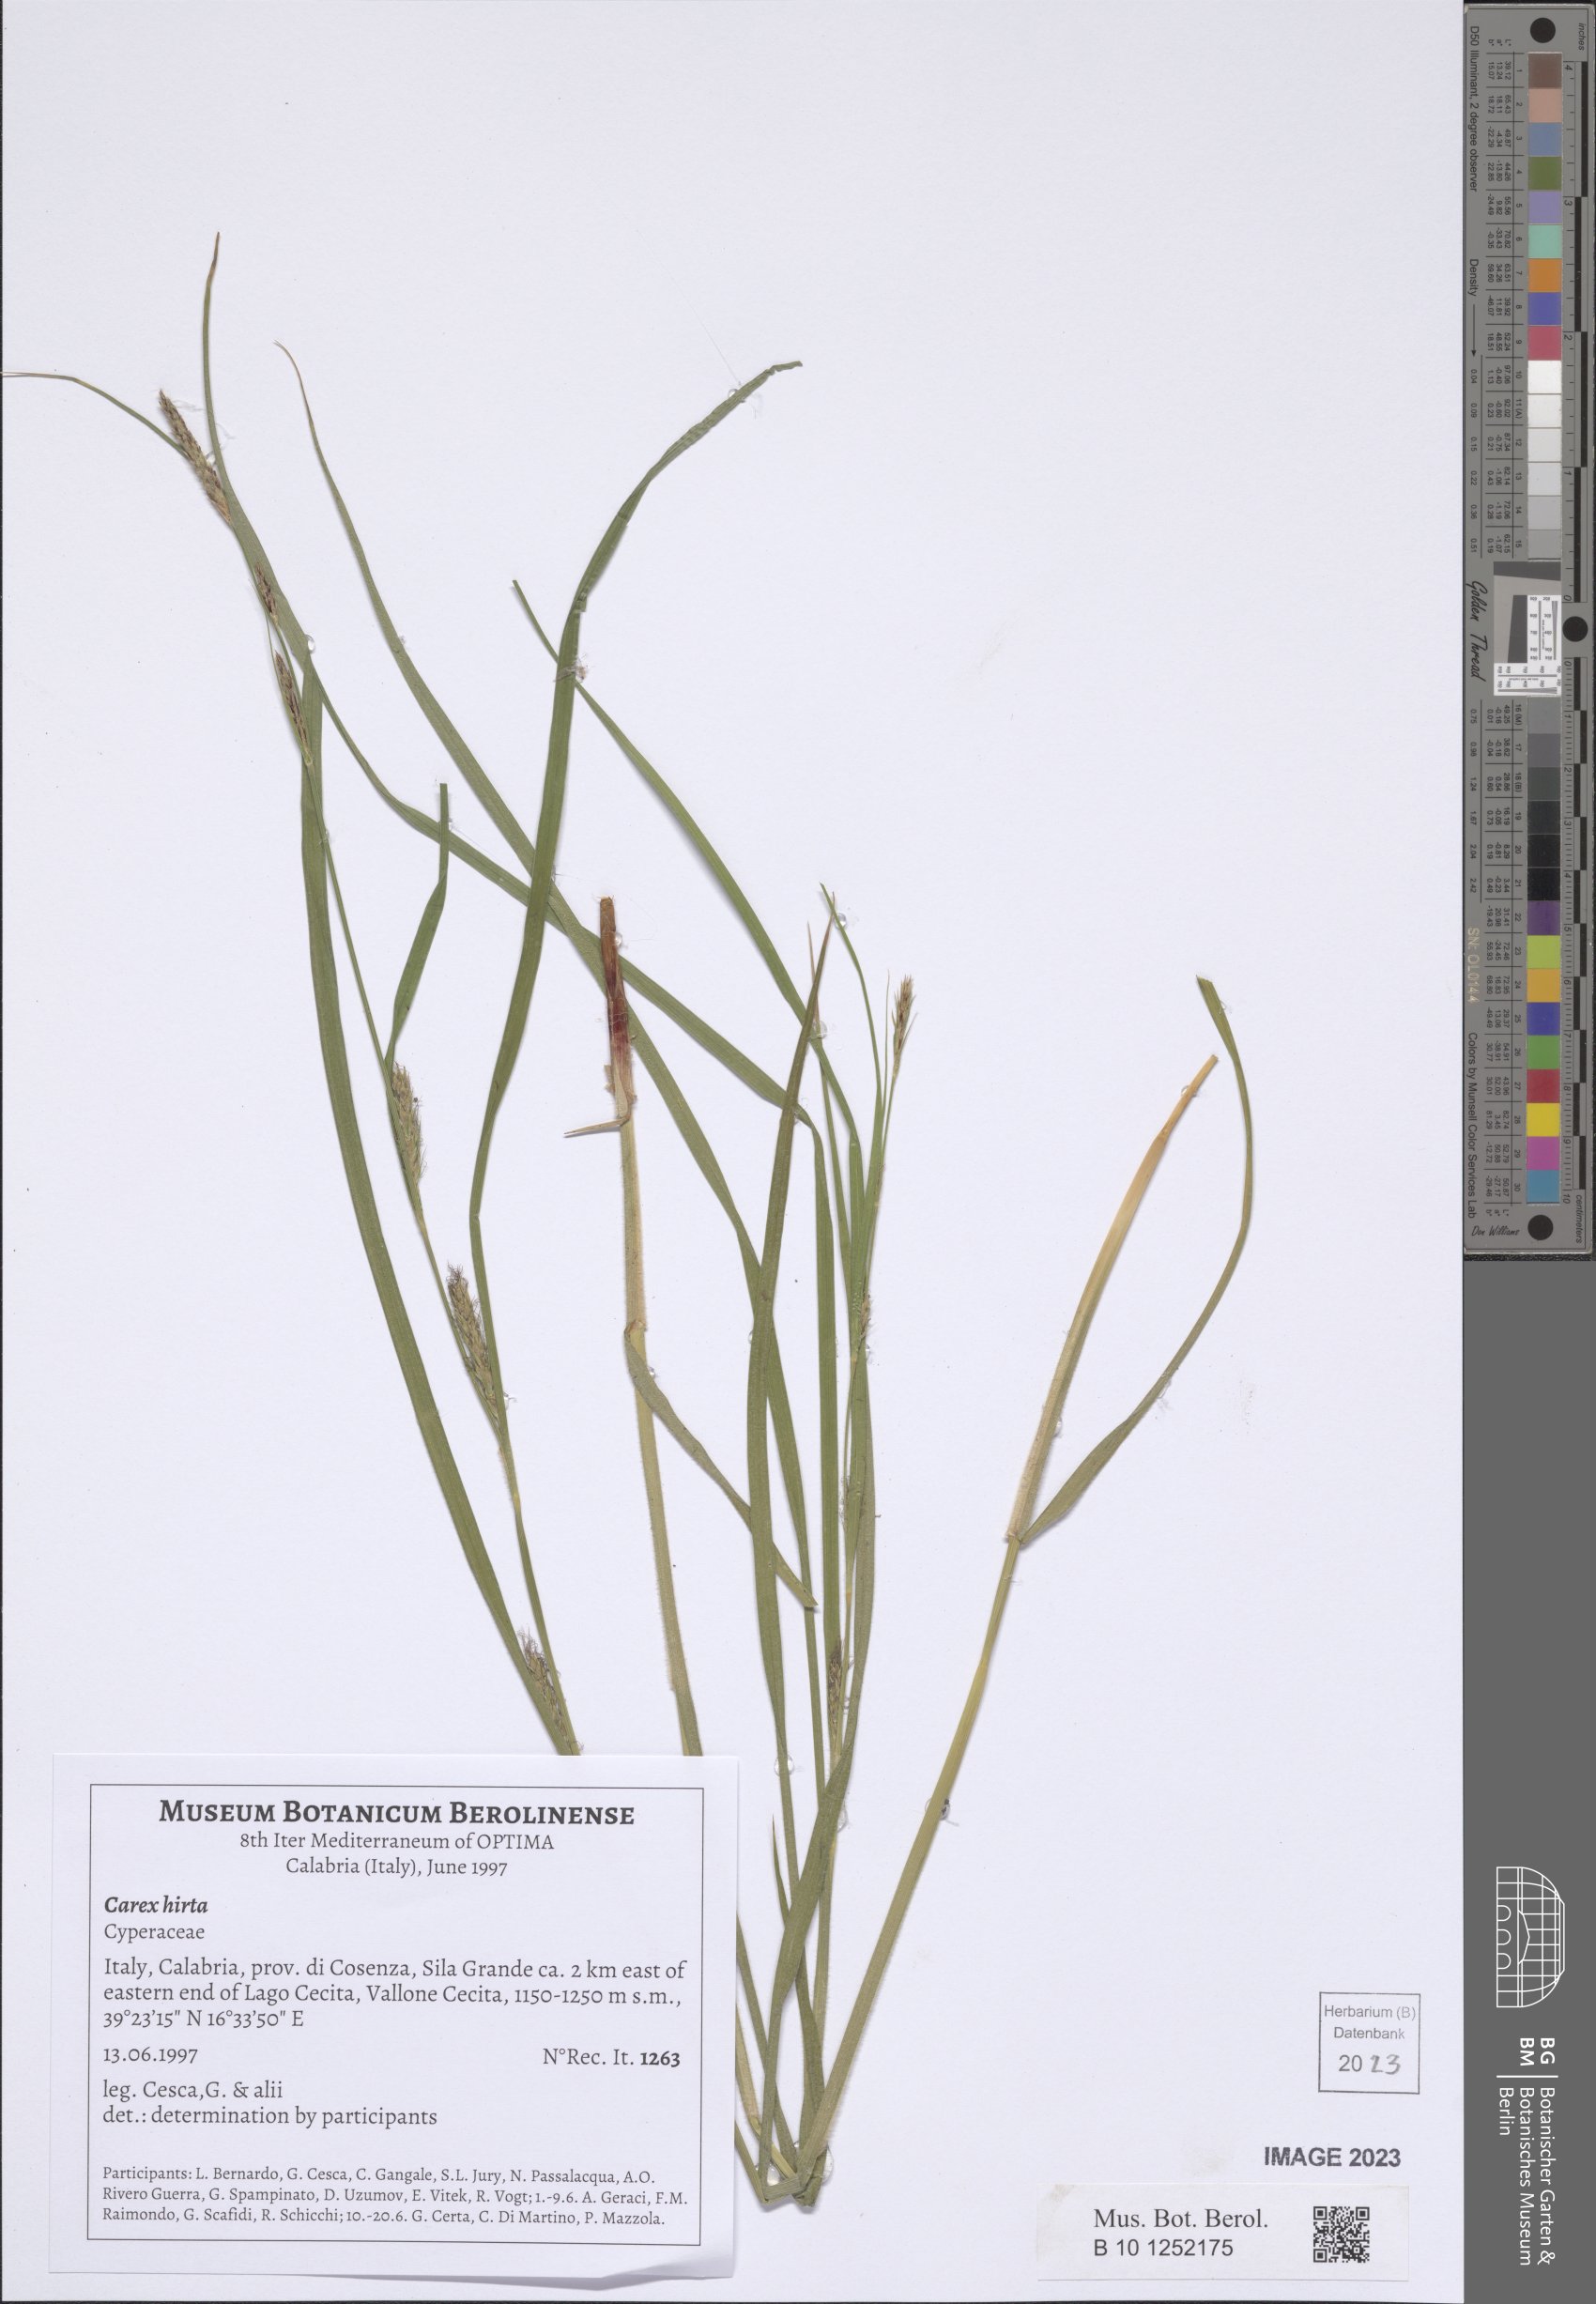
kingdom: Plantae
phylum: Tracheophyta
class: Liliopsida
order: Poales
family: Cyperaceae
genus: Carex
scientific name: Carex hirta
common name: Hairy sedge
